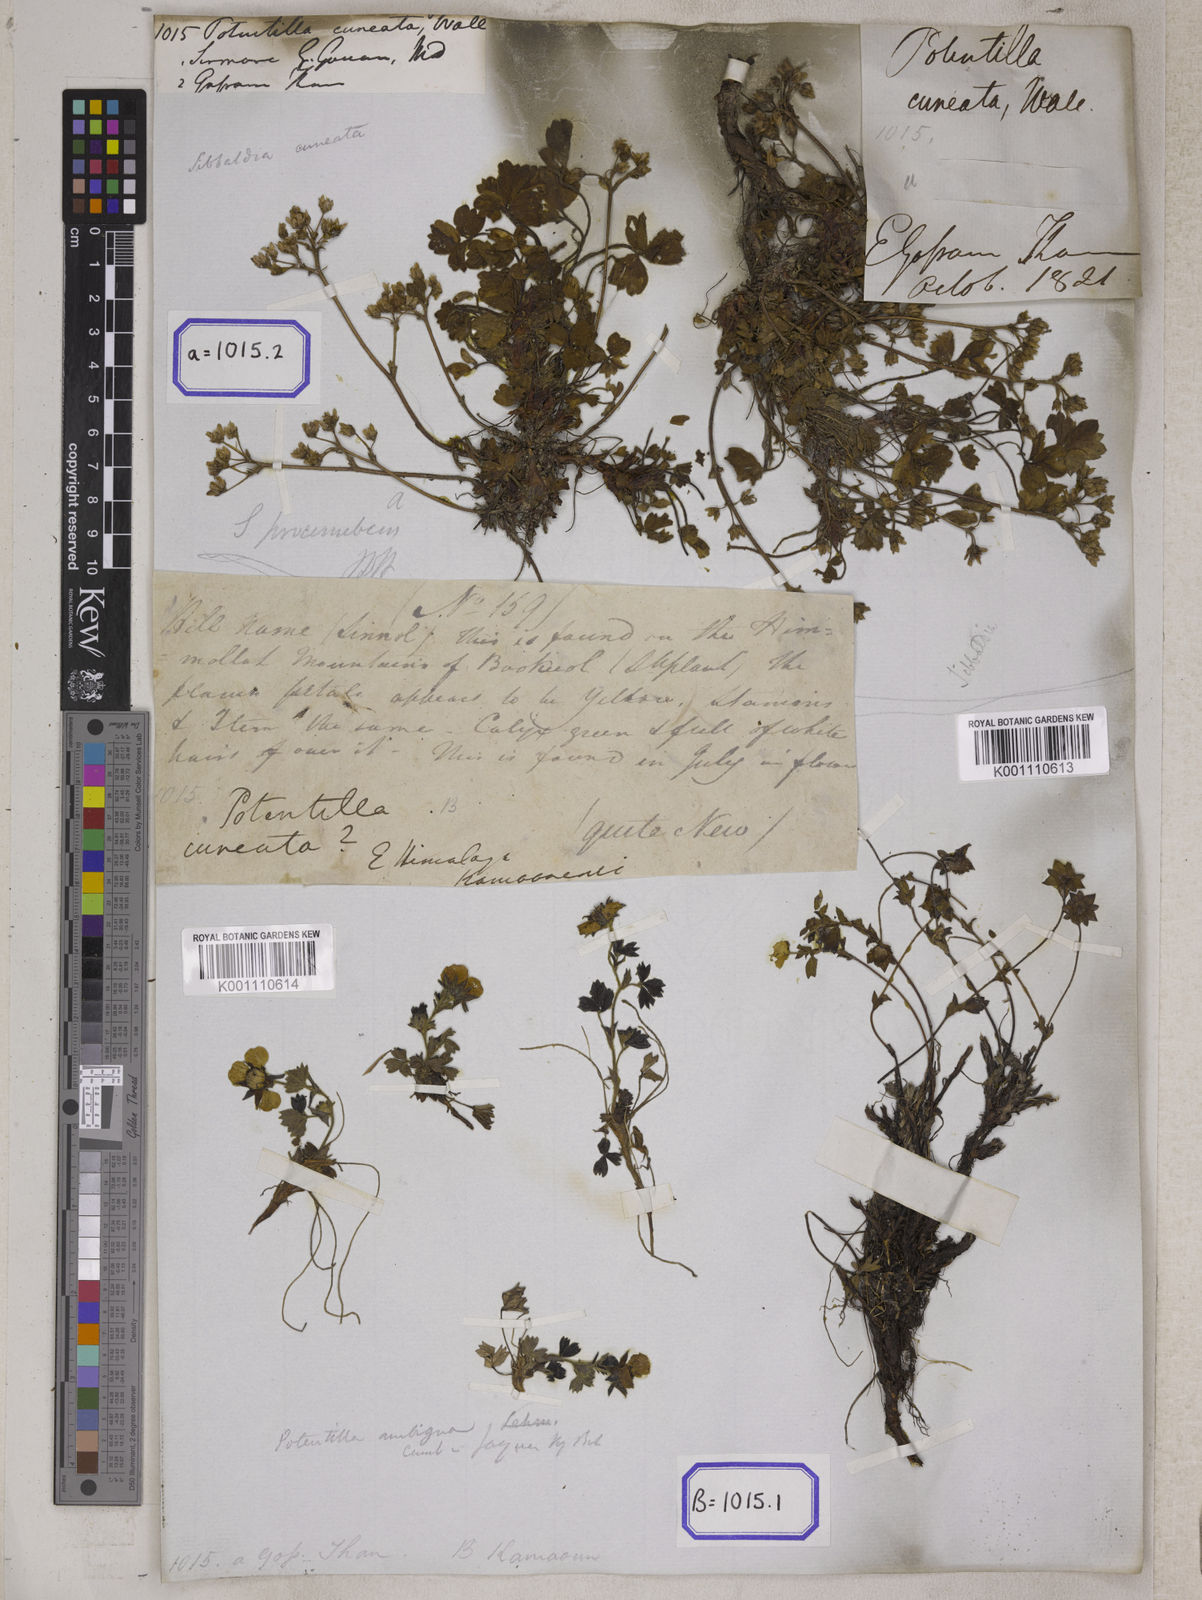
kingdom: Plantae
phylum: Tracheophyta
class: Magnoliopsida
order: Rosales
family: Rosaceae
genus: Potentilla
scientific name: Potentilla
